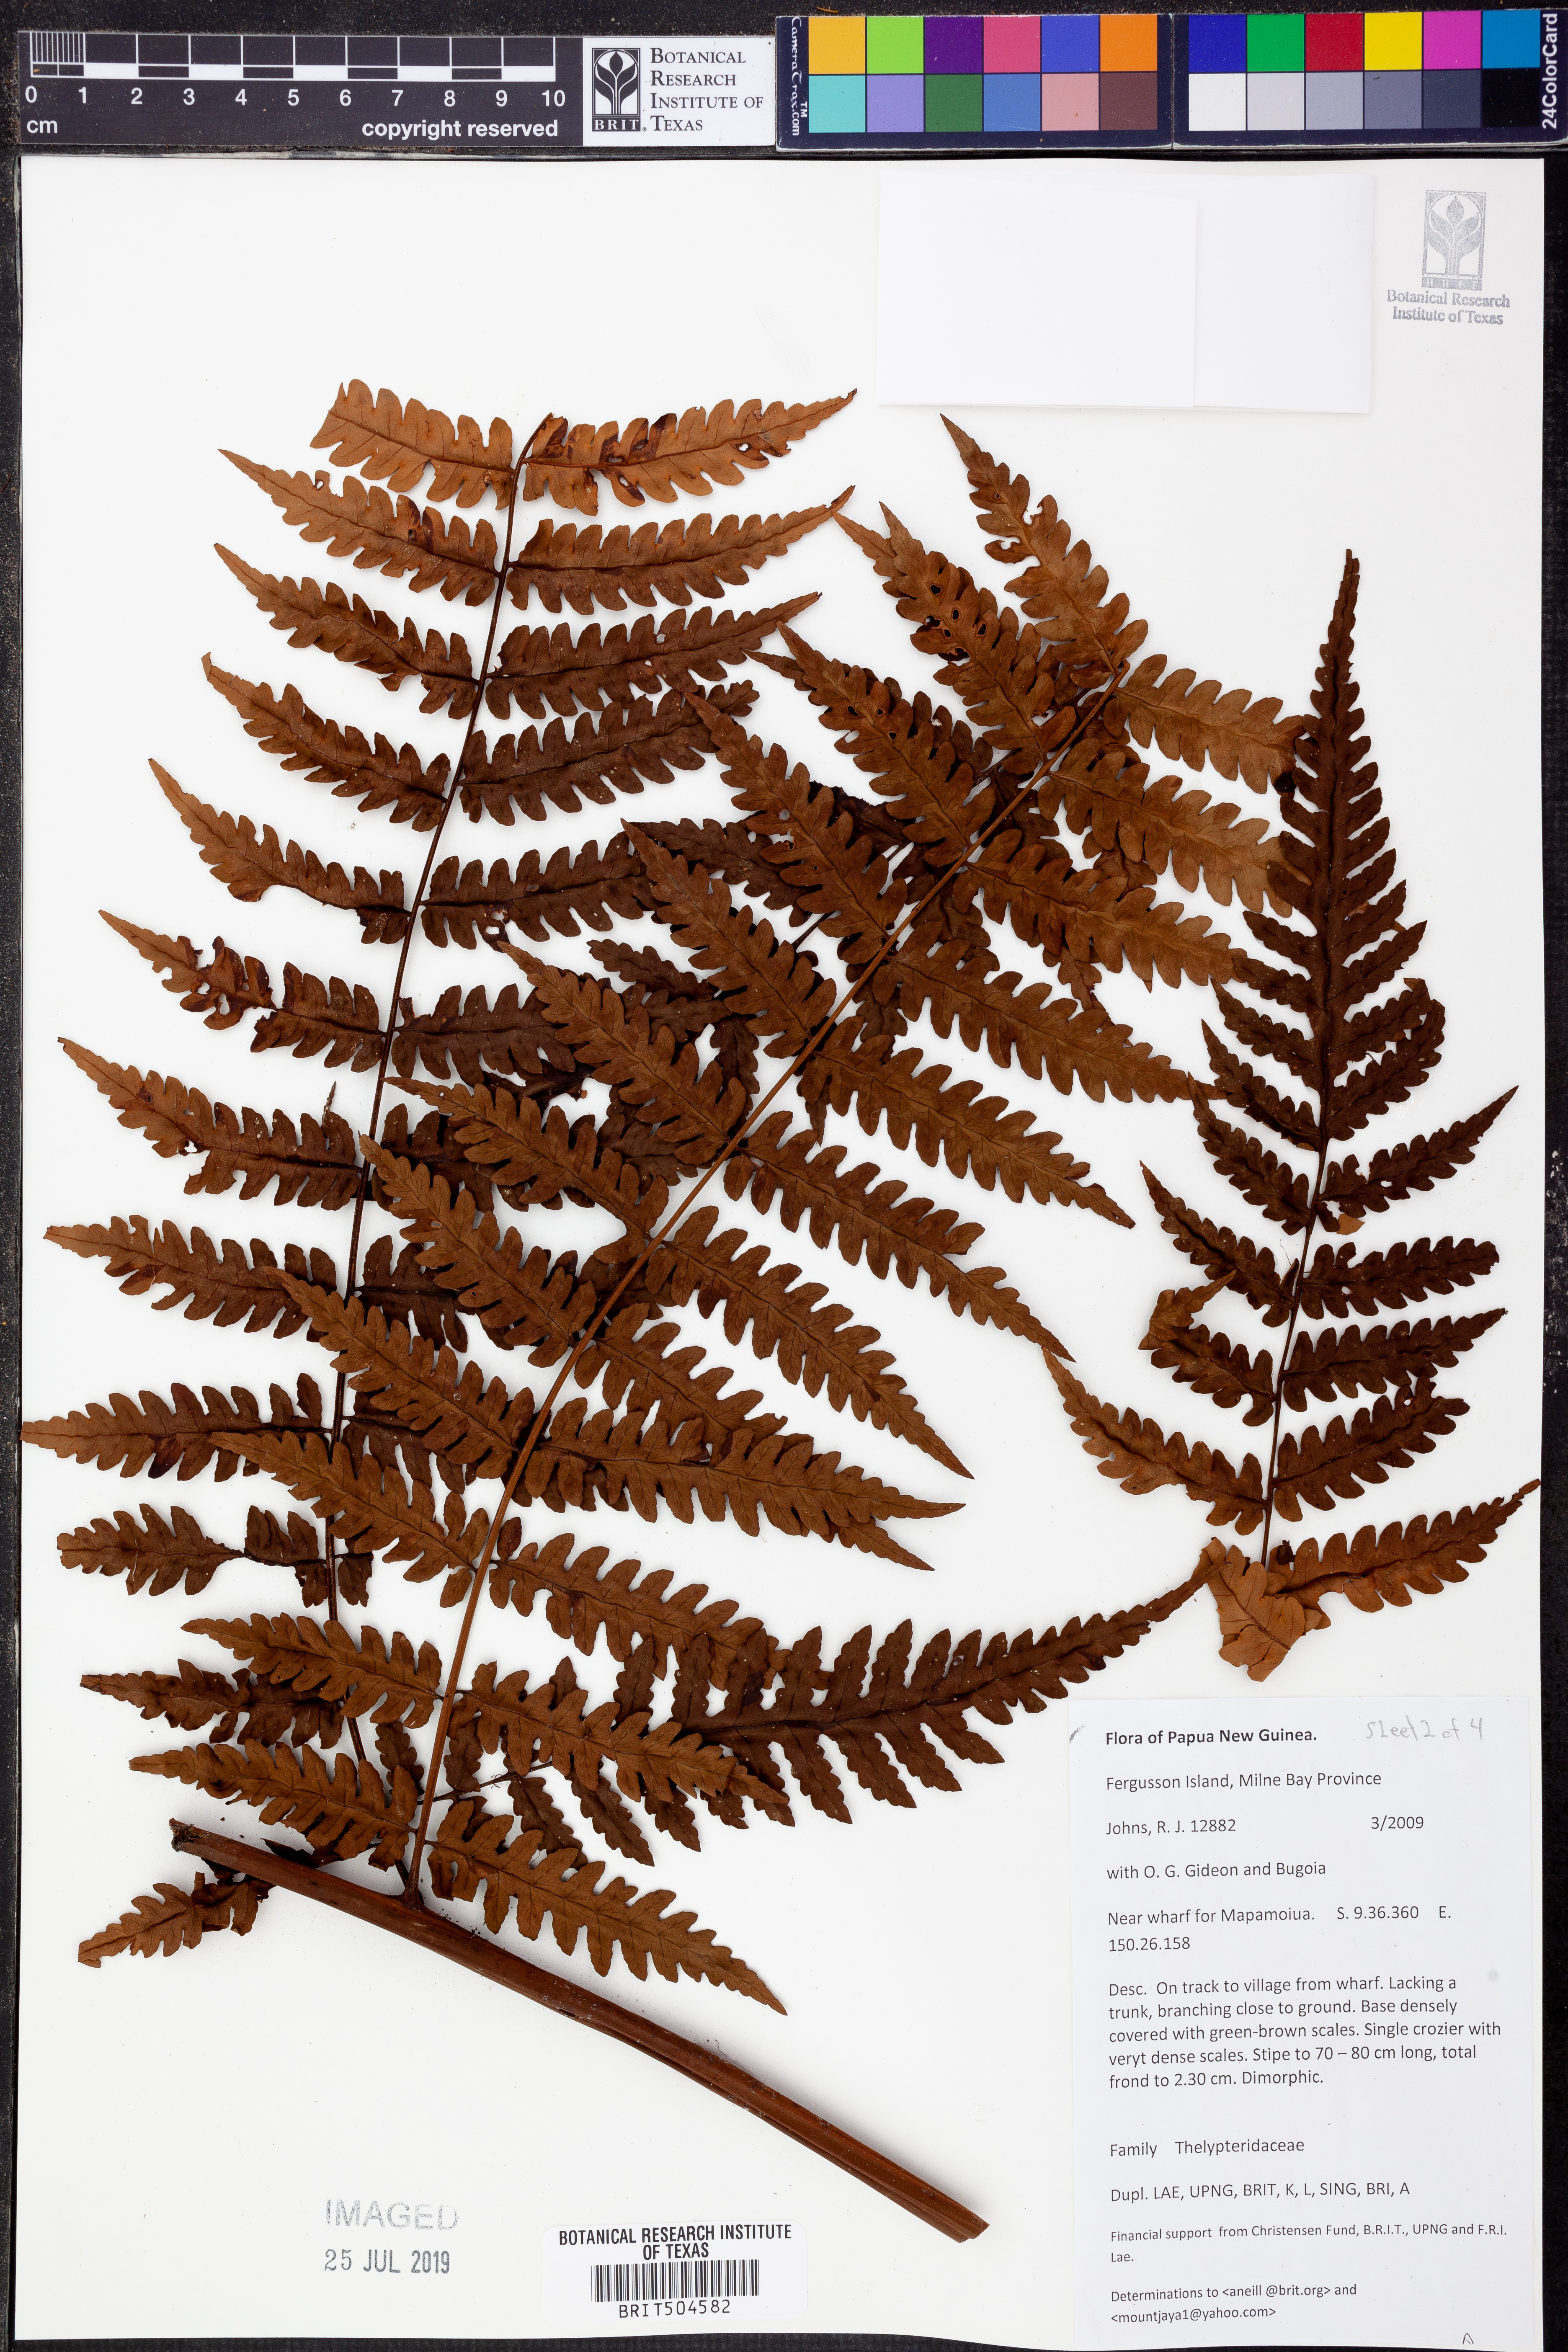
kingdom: Plantae
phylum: Tracheophyta
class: Polypodiopsida
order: Polypodiales
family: Thelypteridaceae
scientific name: Thelypteridaceae
